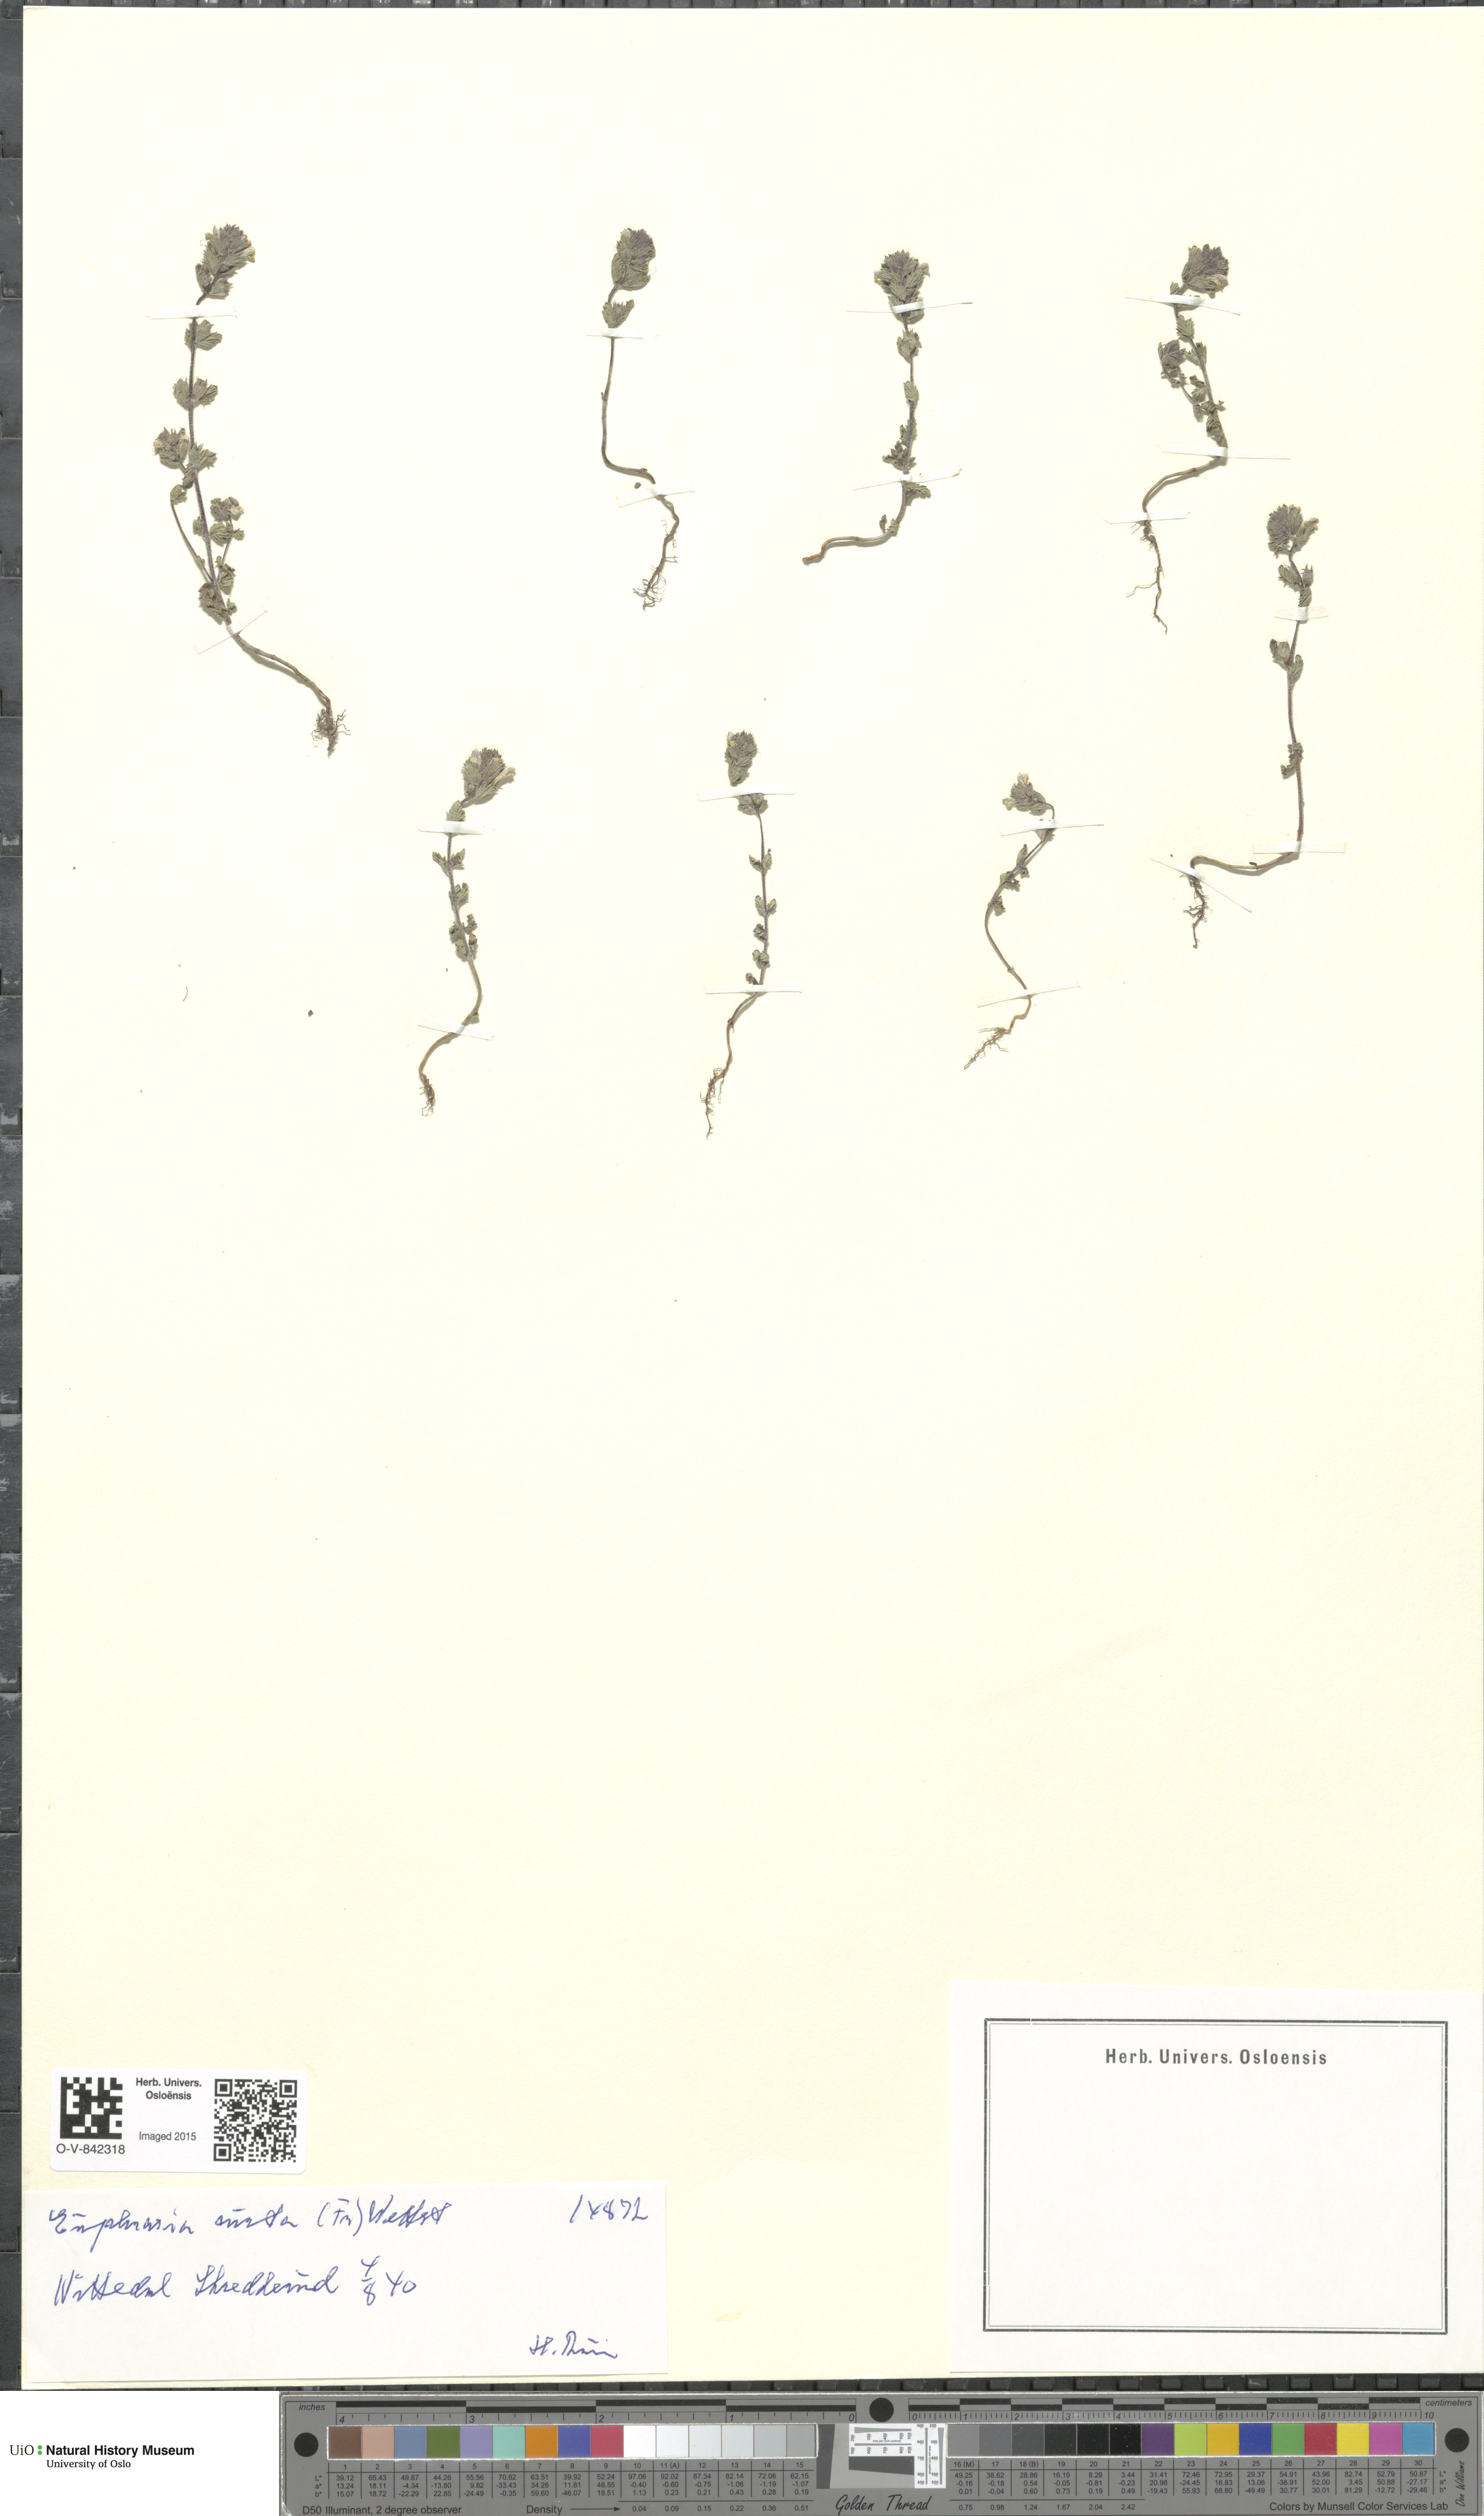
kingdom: Plantae
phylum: Tracheophyta
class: Magnoliopsida
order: Lamiales
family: Orobanchaceae
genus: Euphrasia
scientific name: Euphrasia micrantha
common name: Northern eyebright
